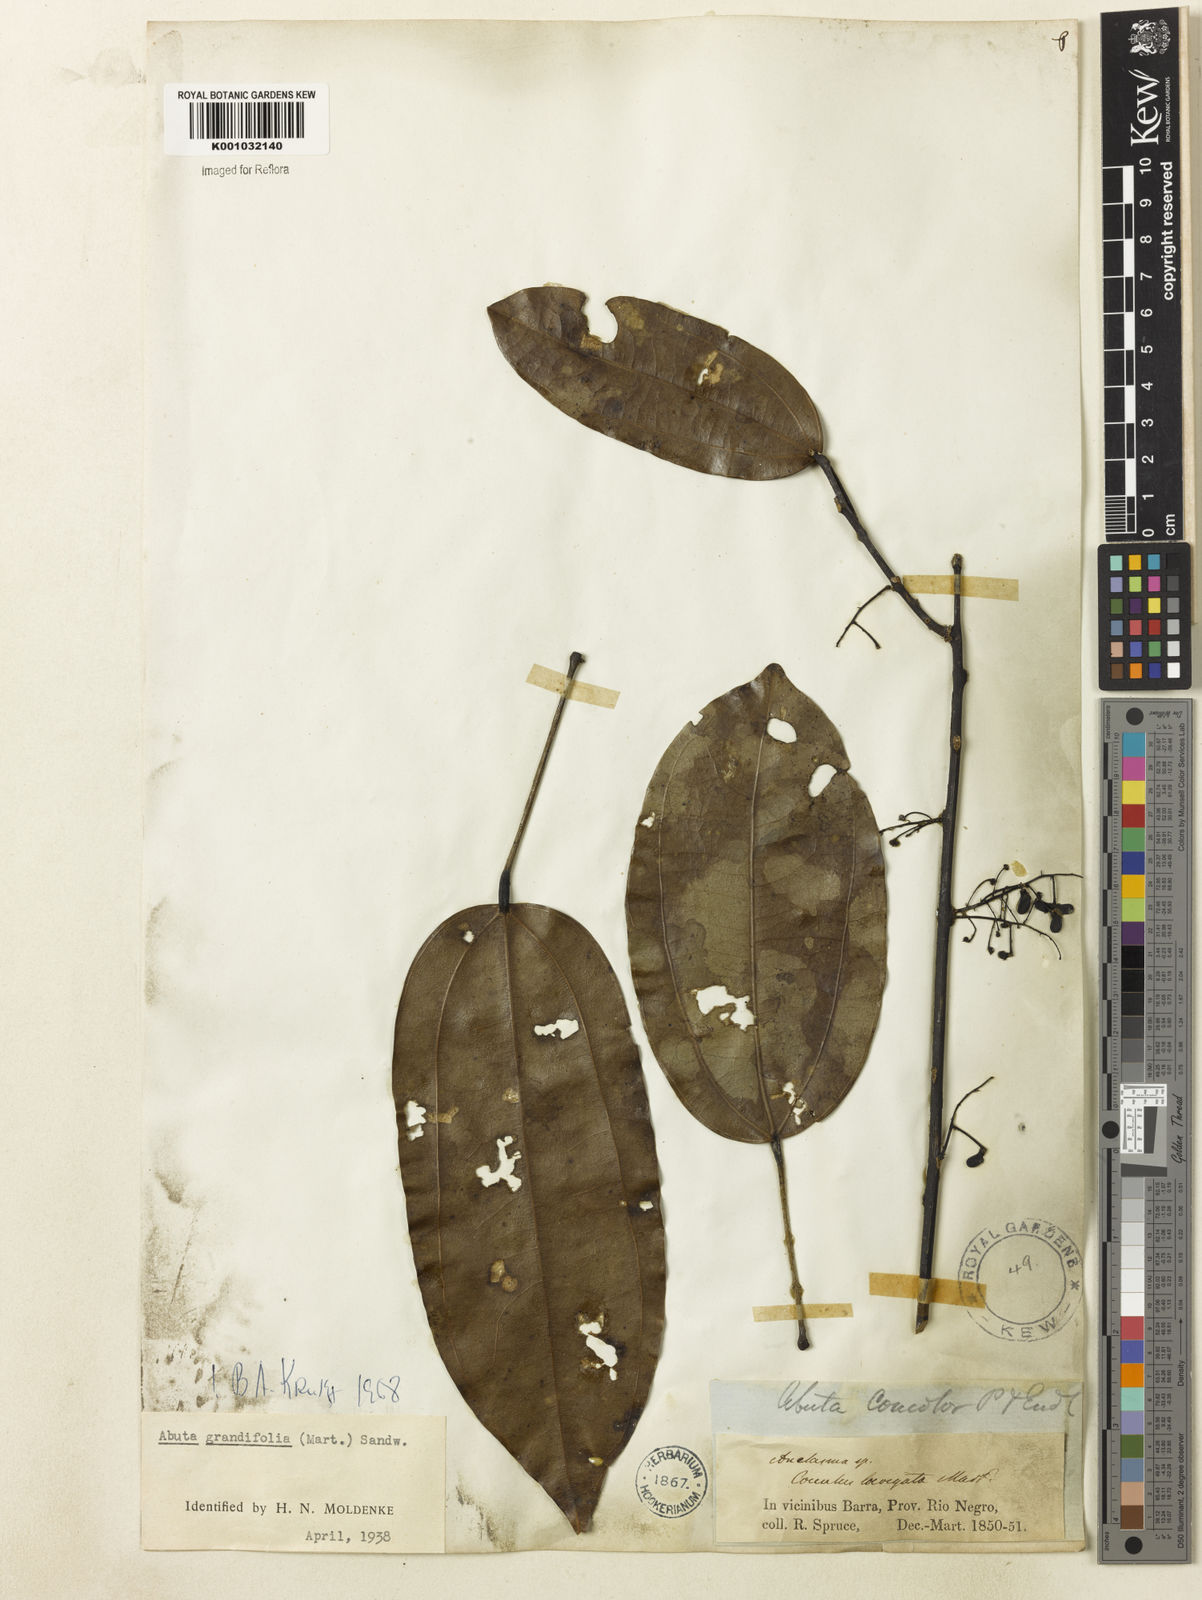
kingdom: Plantae
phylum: Tracheophyta
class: Magnoliopsida
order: Ranunculales
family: Menispermaceae
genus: Abuta
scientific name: Abuta grandifolia
